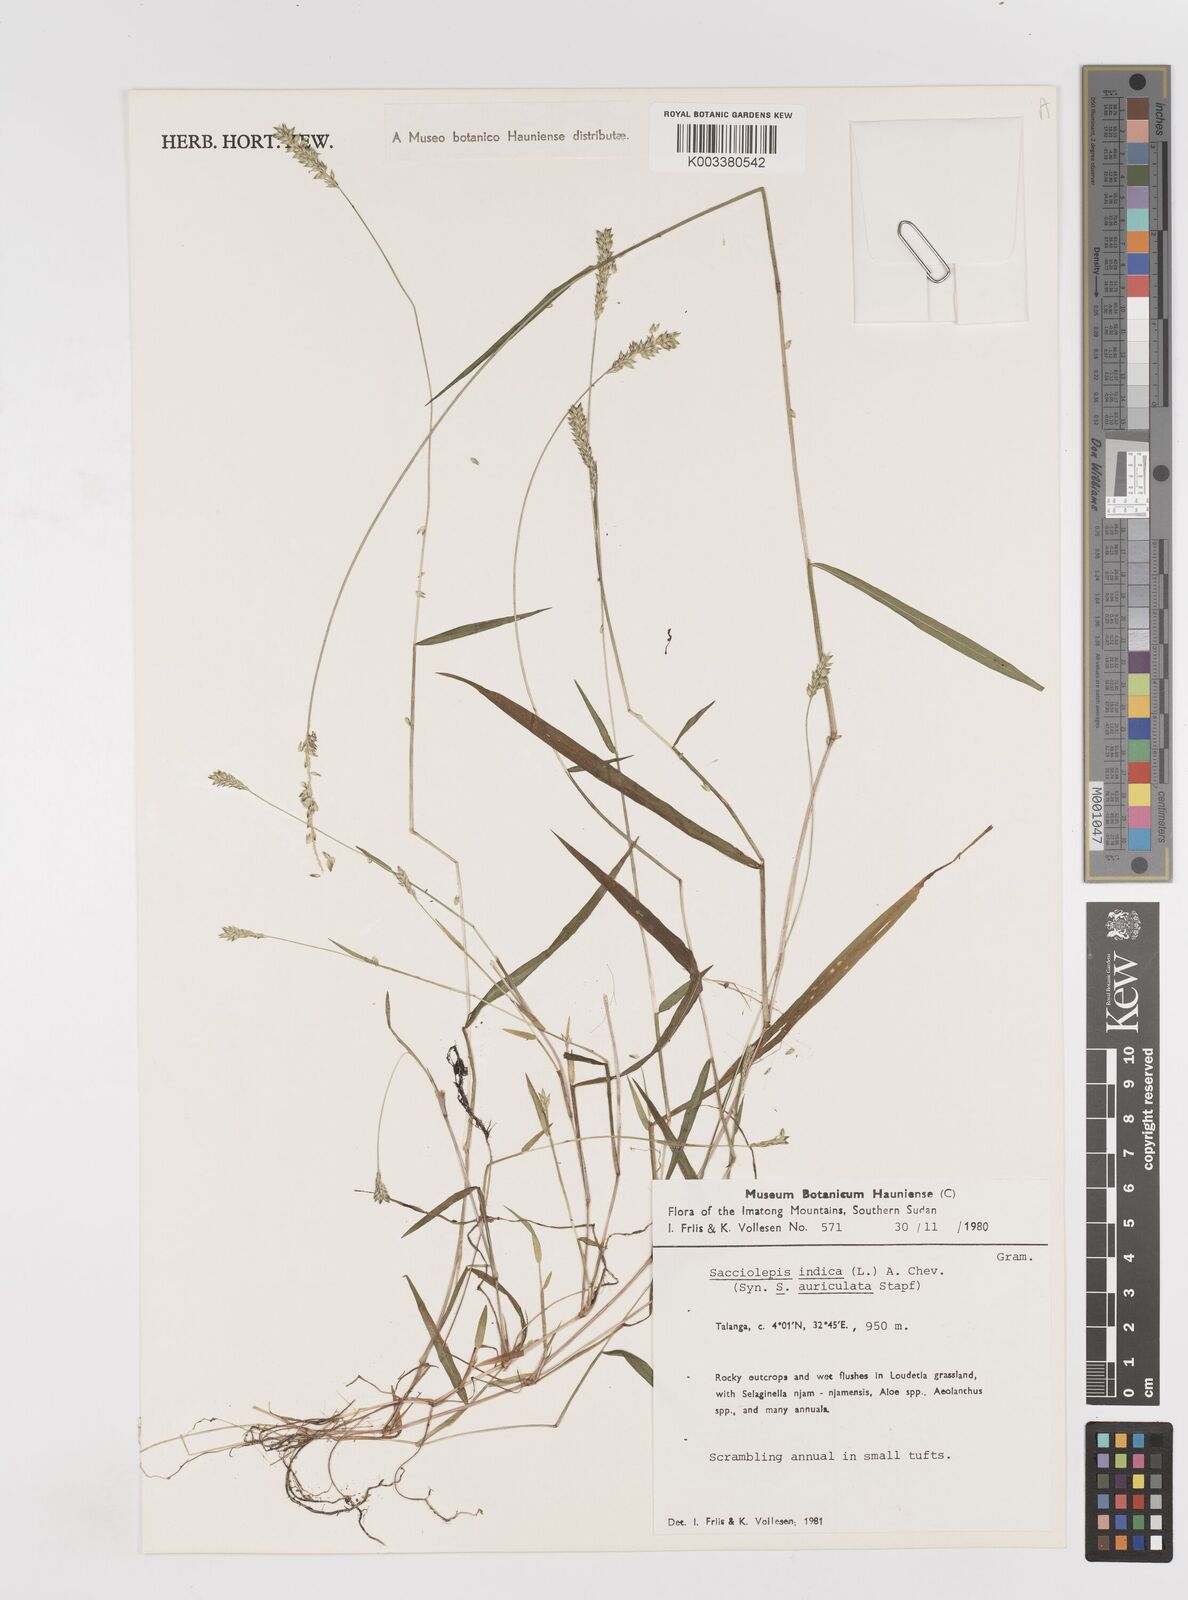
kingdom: Plantae
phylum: Tracheophyta
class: Liliopsida
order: Poales
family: Poaceae
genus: Sacciolepis
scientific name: Sacciolepis indica
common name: Glenwoodgrass
